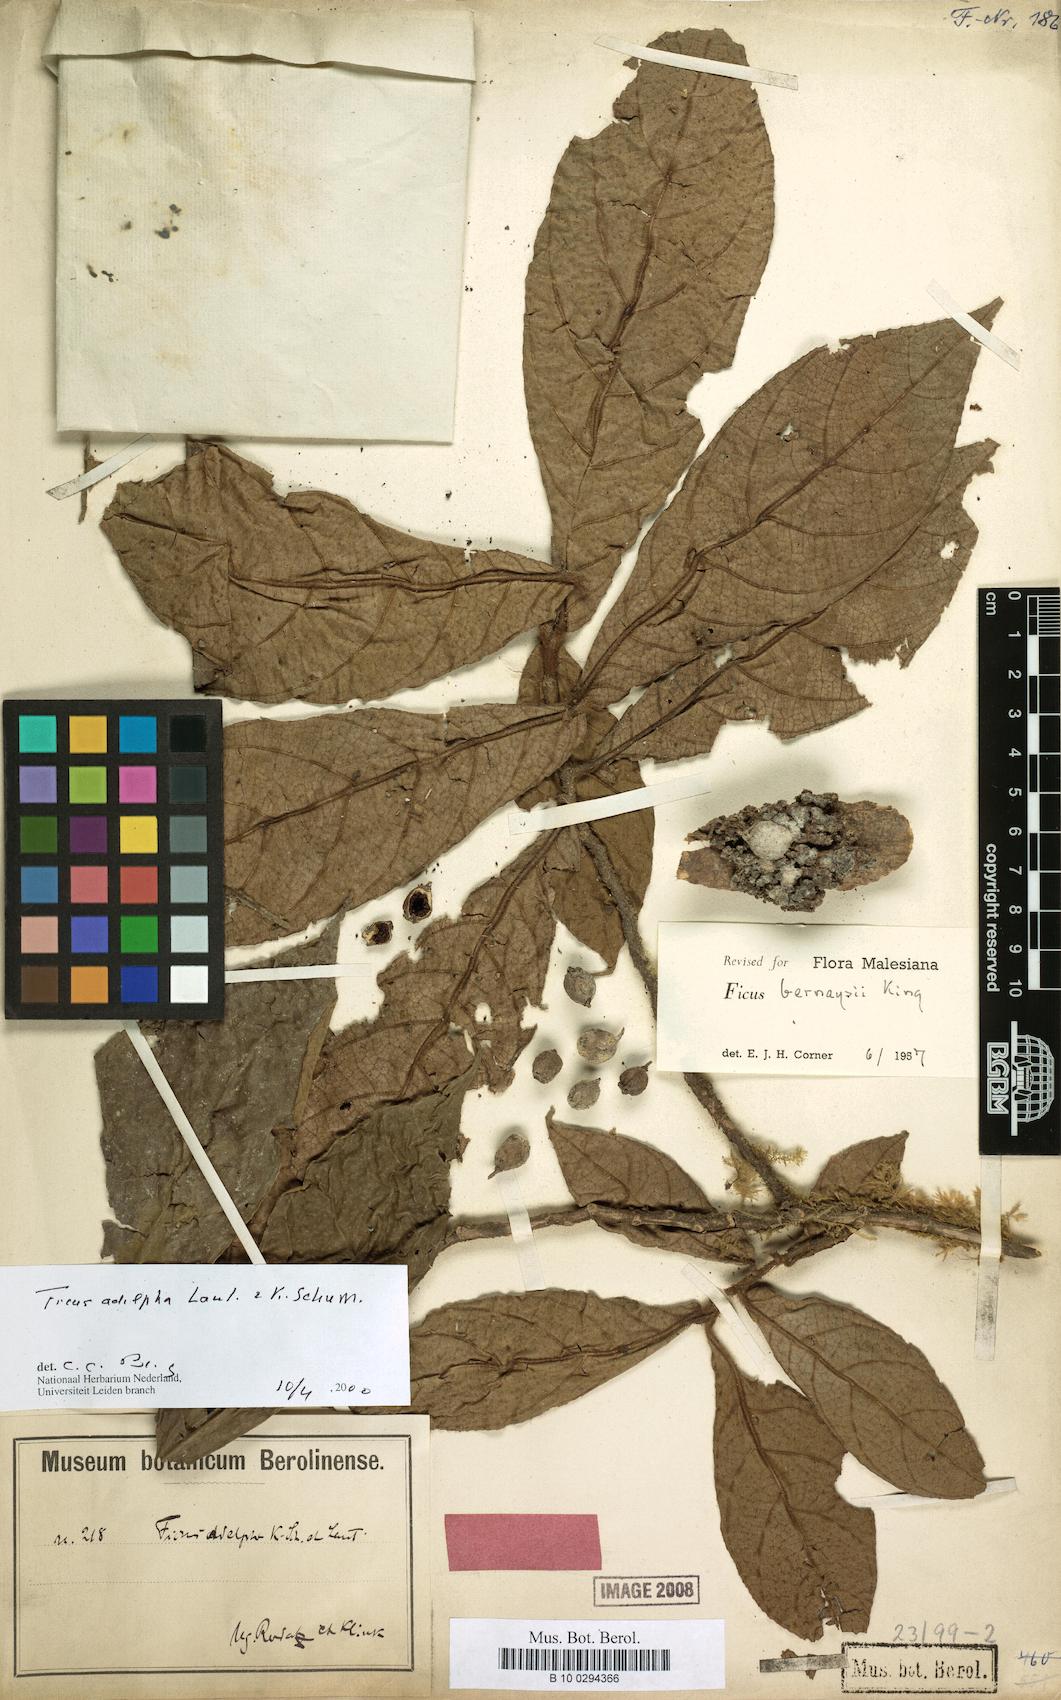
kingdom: Plantae
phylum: Tracheophyta
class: Magnoliopsida
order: Rosales
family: Moraceae
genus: Ficus
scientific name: Ficus adelpha
